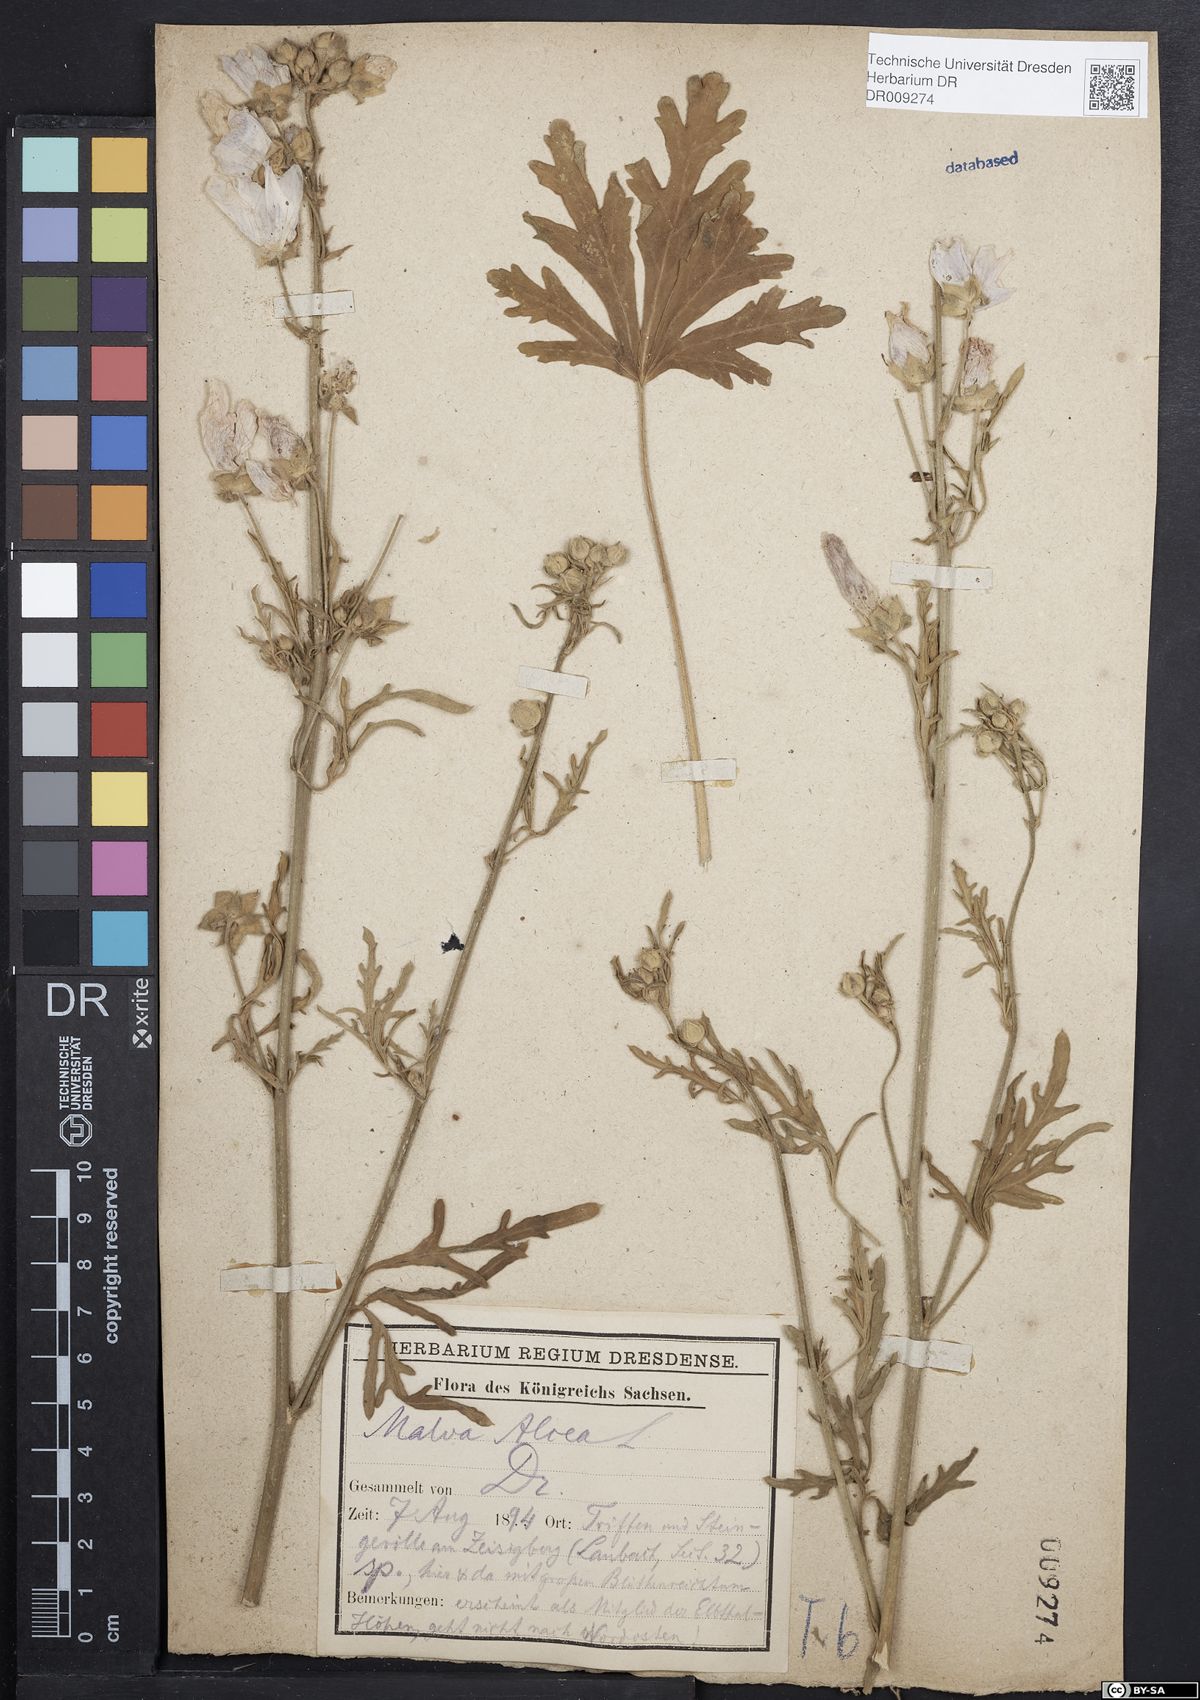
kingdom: Plantae
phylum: Tracheophyta
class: Magnoliopsida
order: Malvales
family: Malvaceae
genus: Malva
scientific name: Malva alcea
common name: Greater musk-mallow
